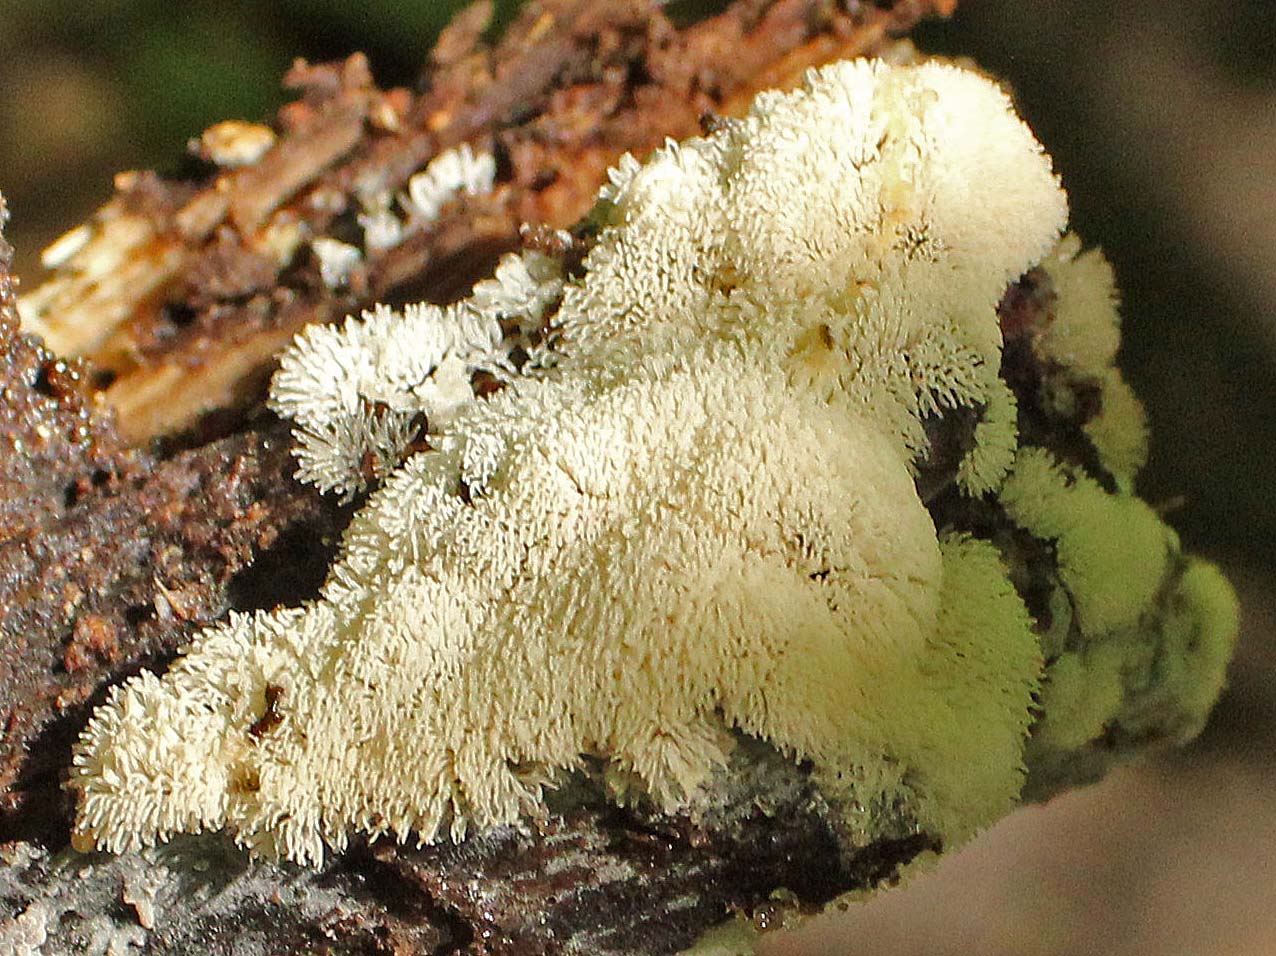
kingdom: Protozoa
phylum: Mycetozoa
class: Protosteliomycetes
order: Ceratiomyxales
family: Ceratiomyxaceae
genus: Ceratiomyxa
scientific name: Ceratiomyxa fruticulosa
